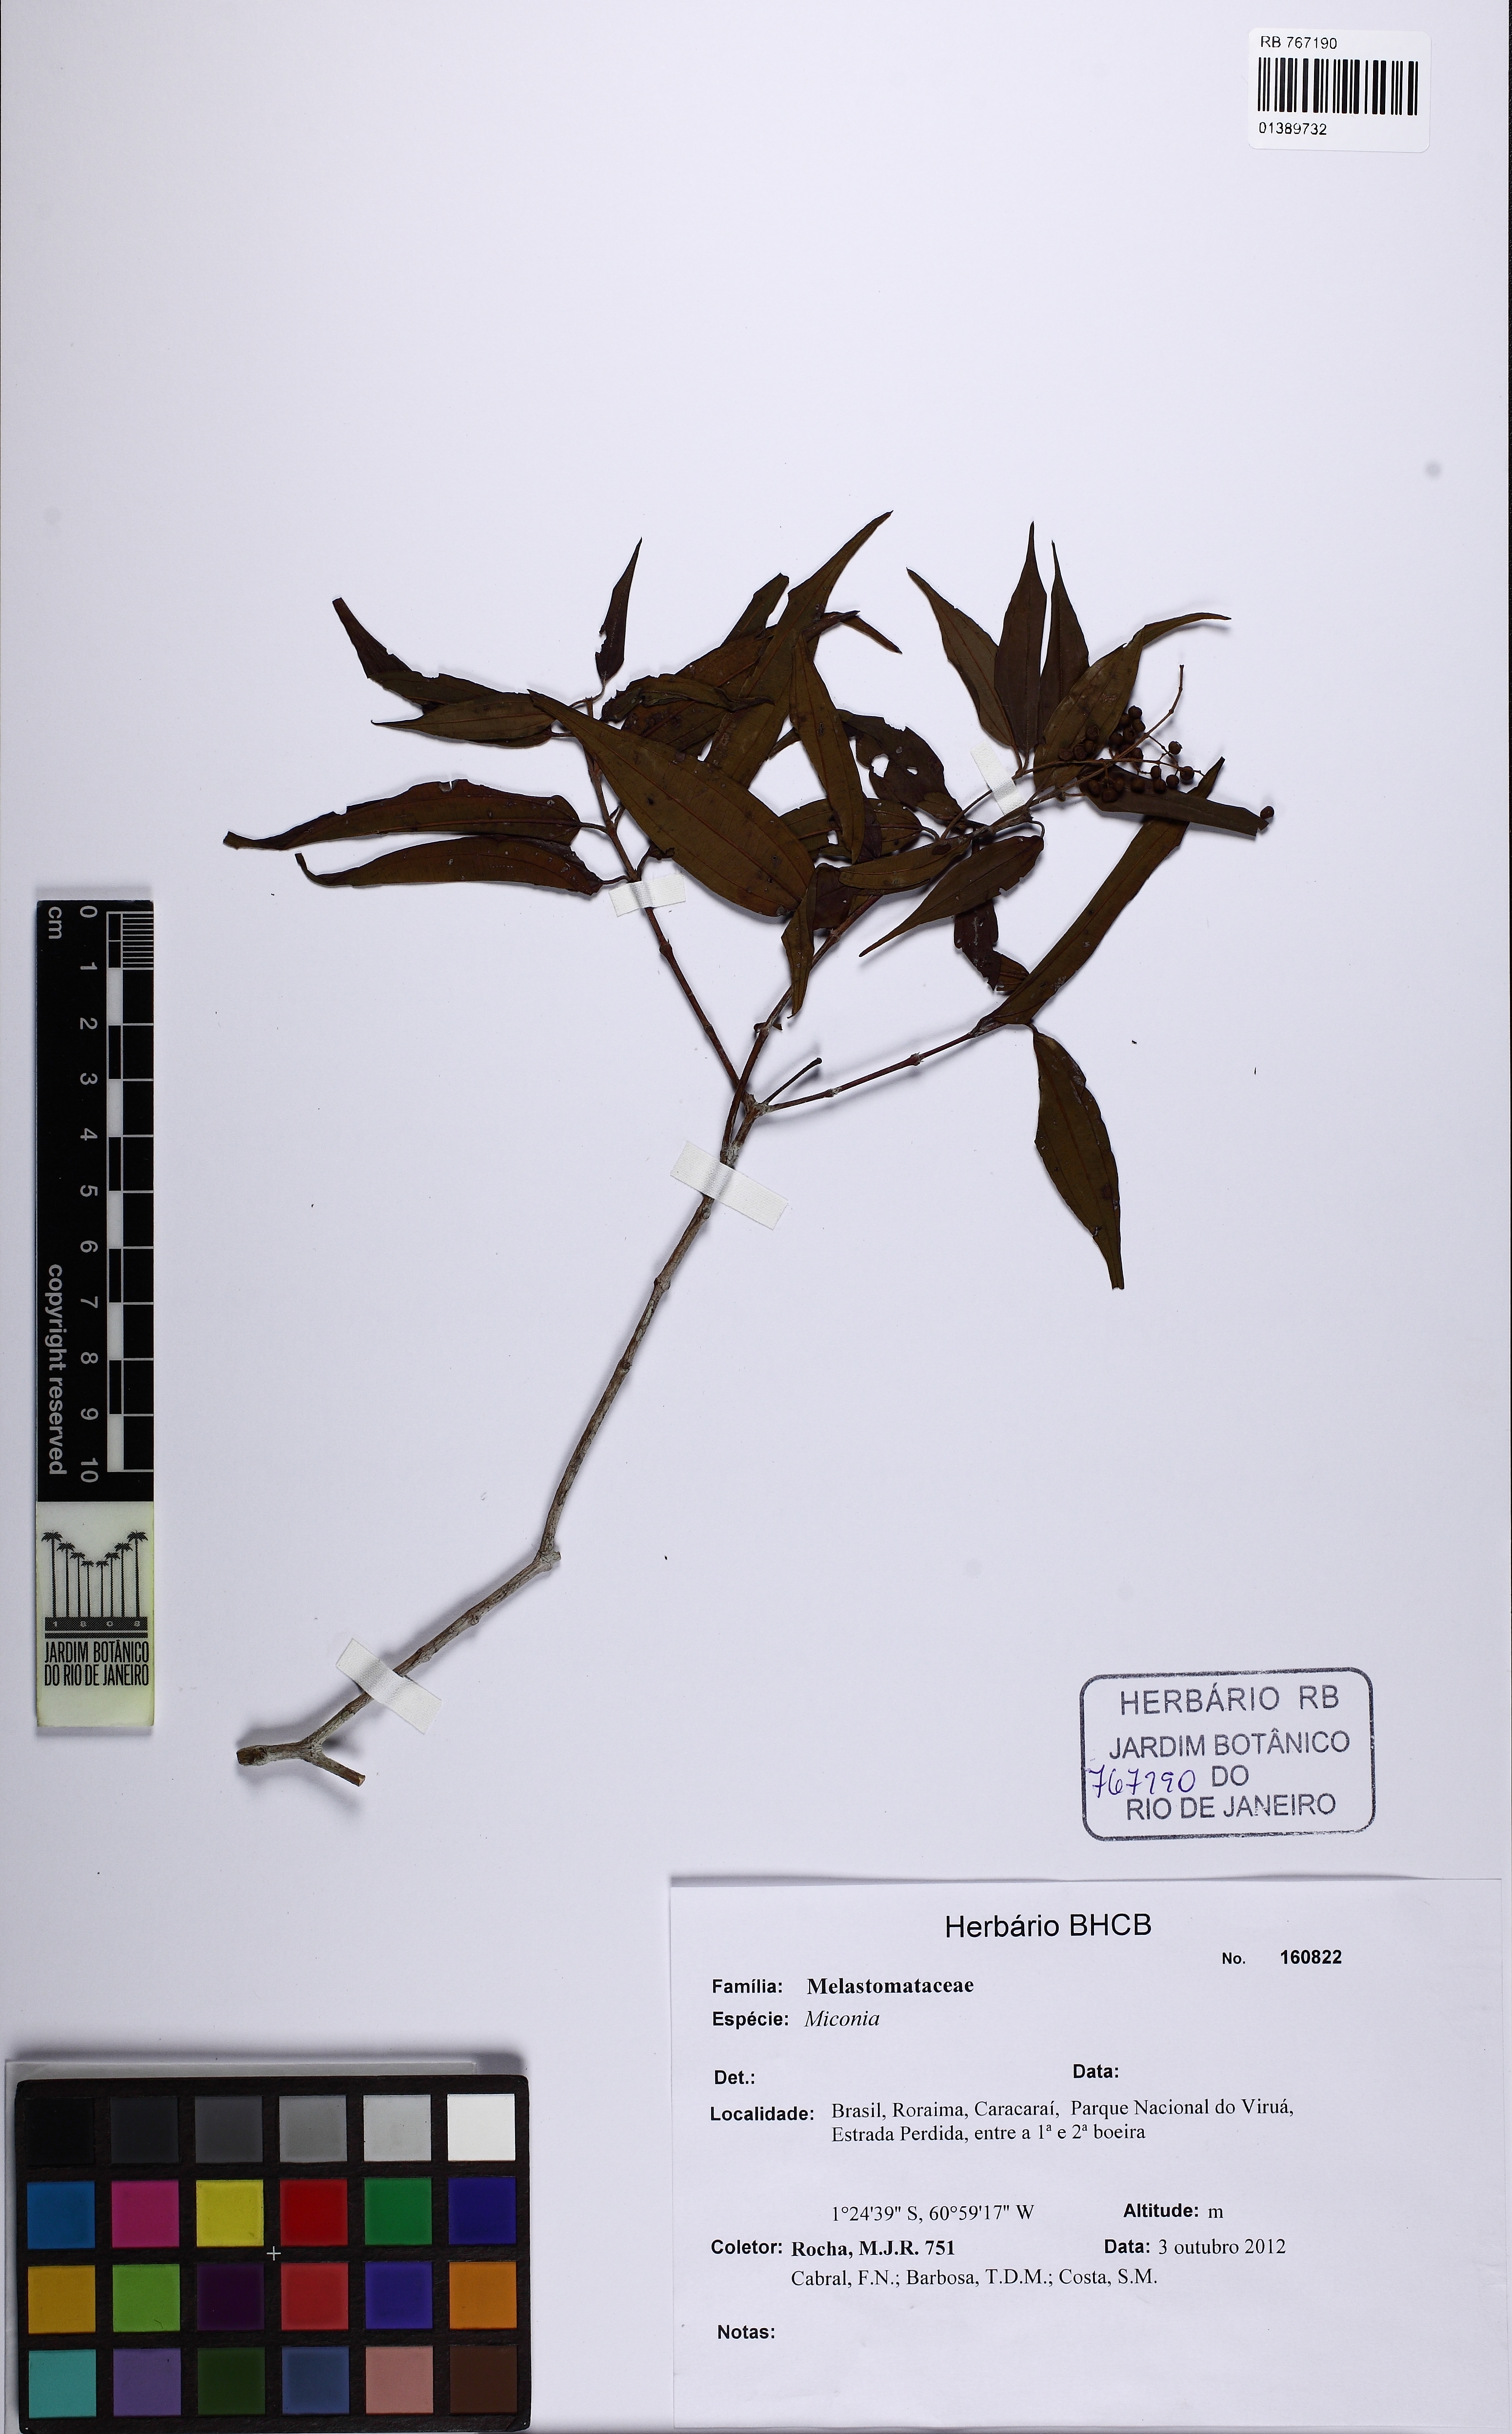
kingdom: Plantae
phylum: Tracheophyta
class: Magnoliopsida
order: Myrtales
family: Melastomataceae
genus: Miconia
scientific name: Miconia
